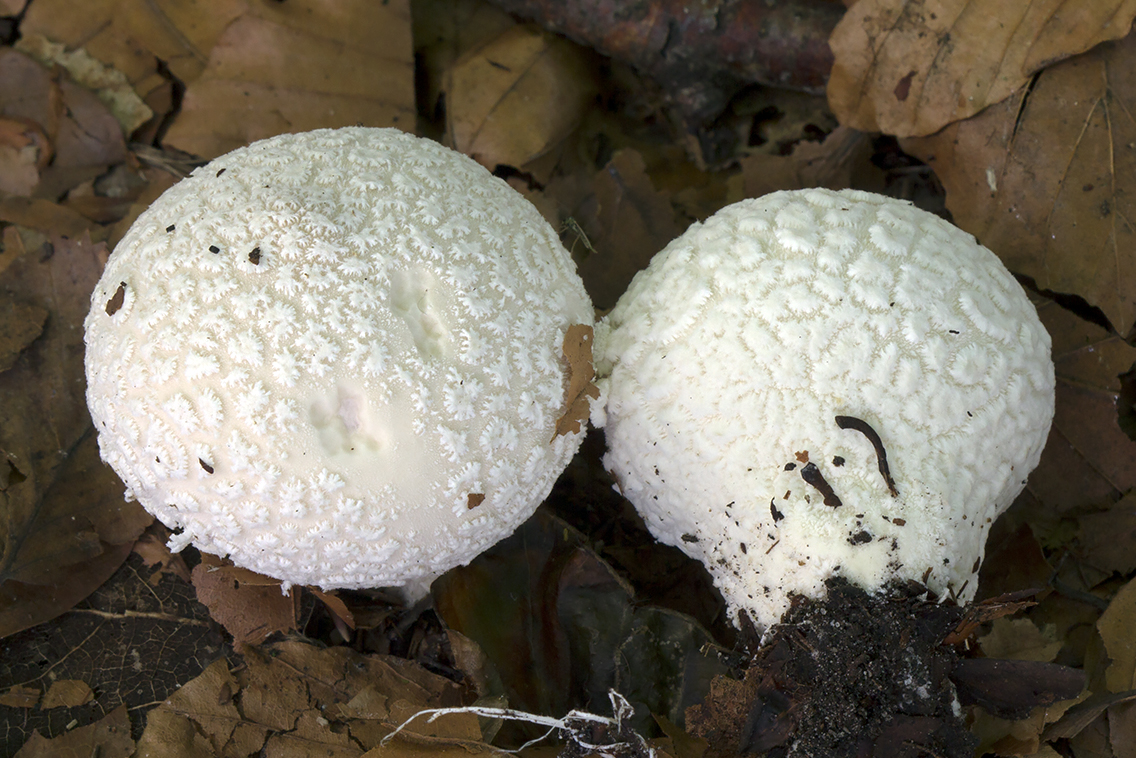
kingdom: Fungi
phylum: Basidiomycota
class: Agaricomycetes
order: Agaricales
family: Lycoperdaceae
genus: Lycoperdon
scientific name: Lycoperdon mammiforme
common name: rosa støvbold
